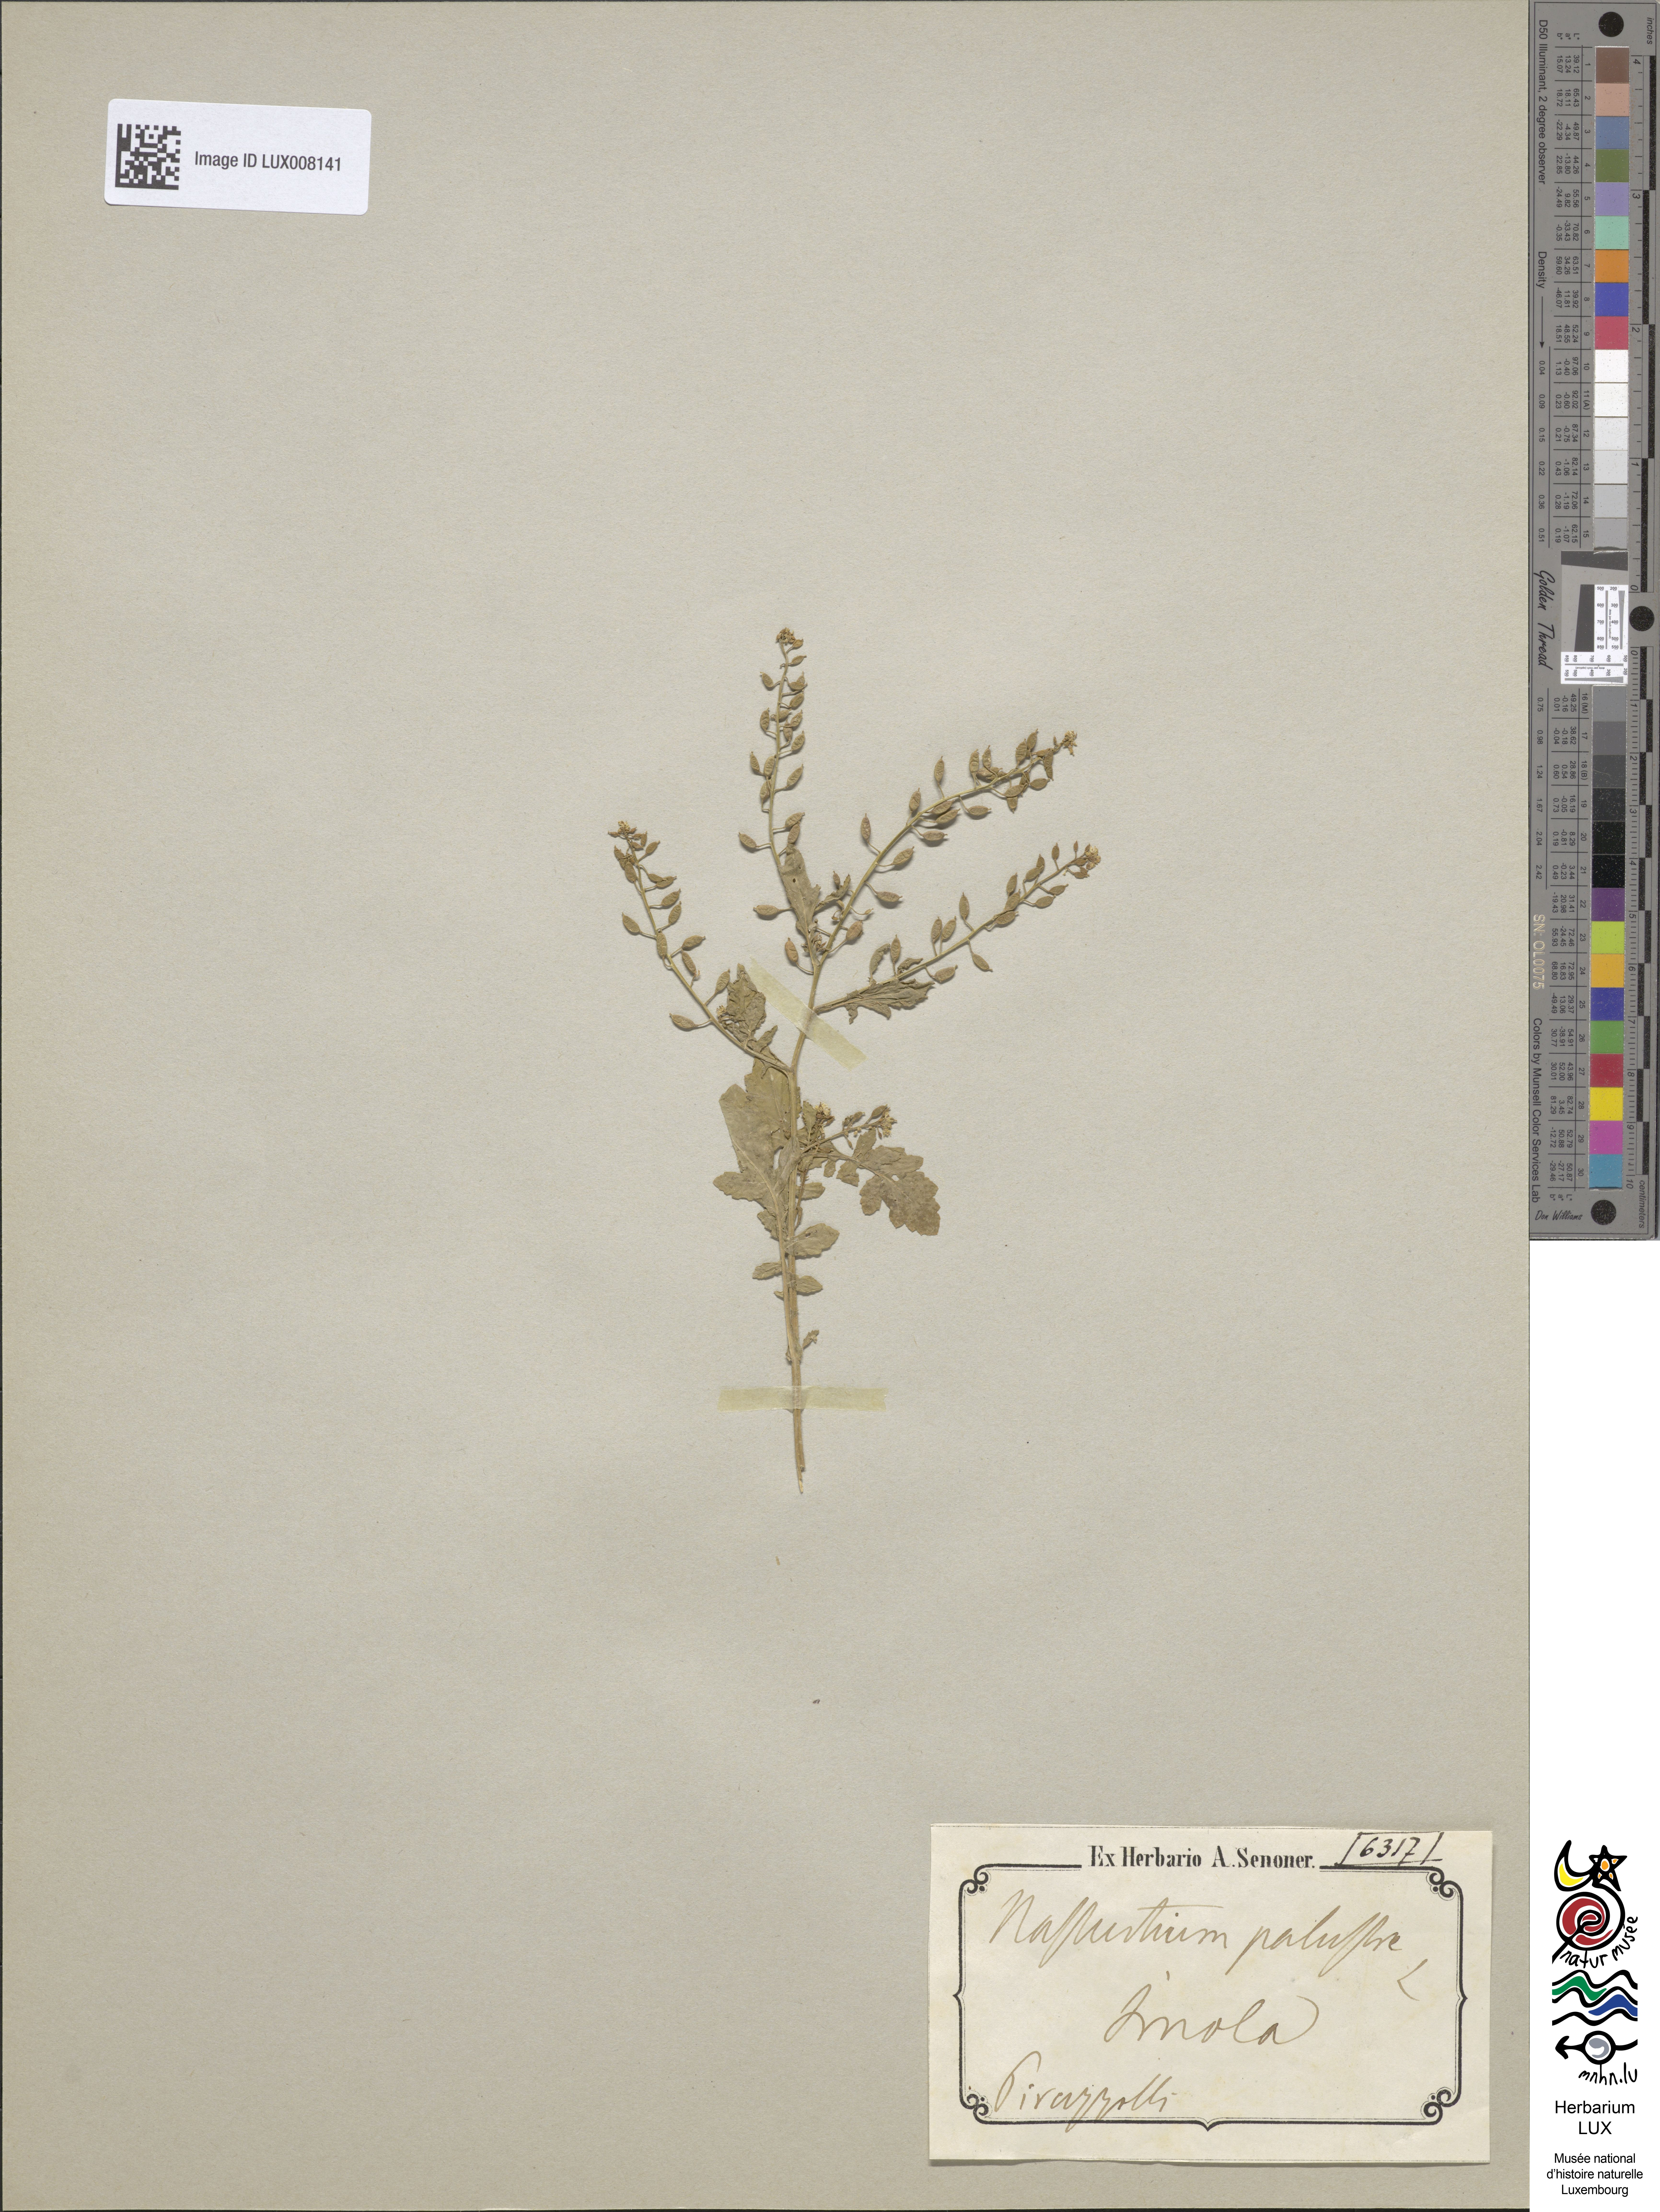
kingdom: Plantae
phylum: Tracheophyta
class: Magnoliopsida
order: Brassicales
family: Brassicaceae
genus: Rorippa
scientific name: Rorippa islandica
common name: Marsh cress
